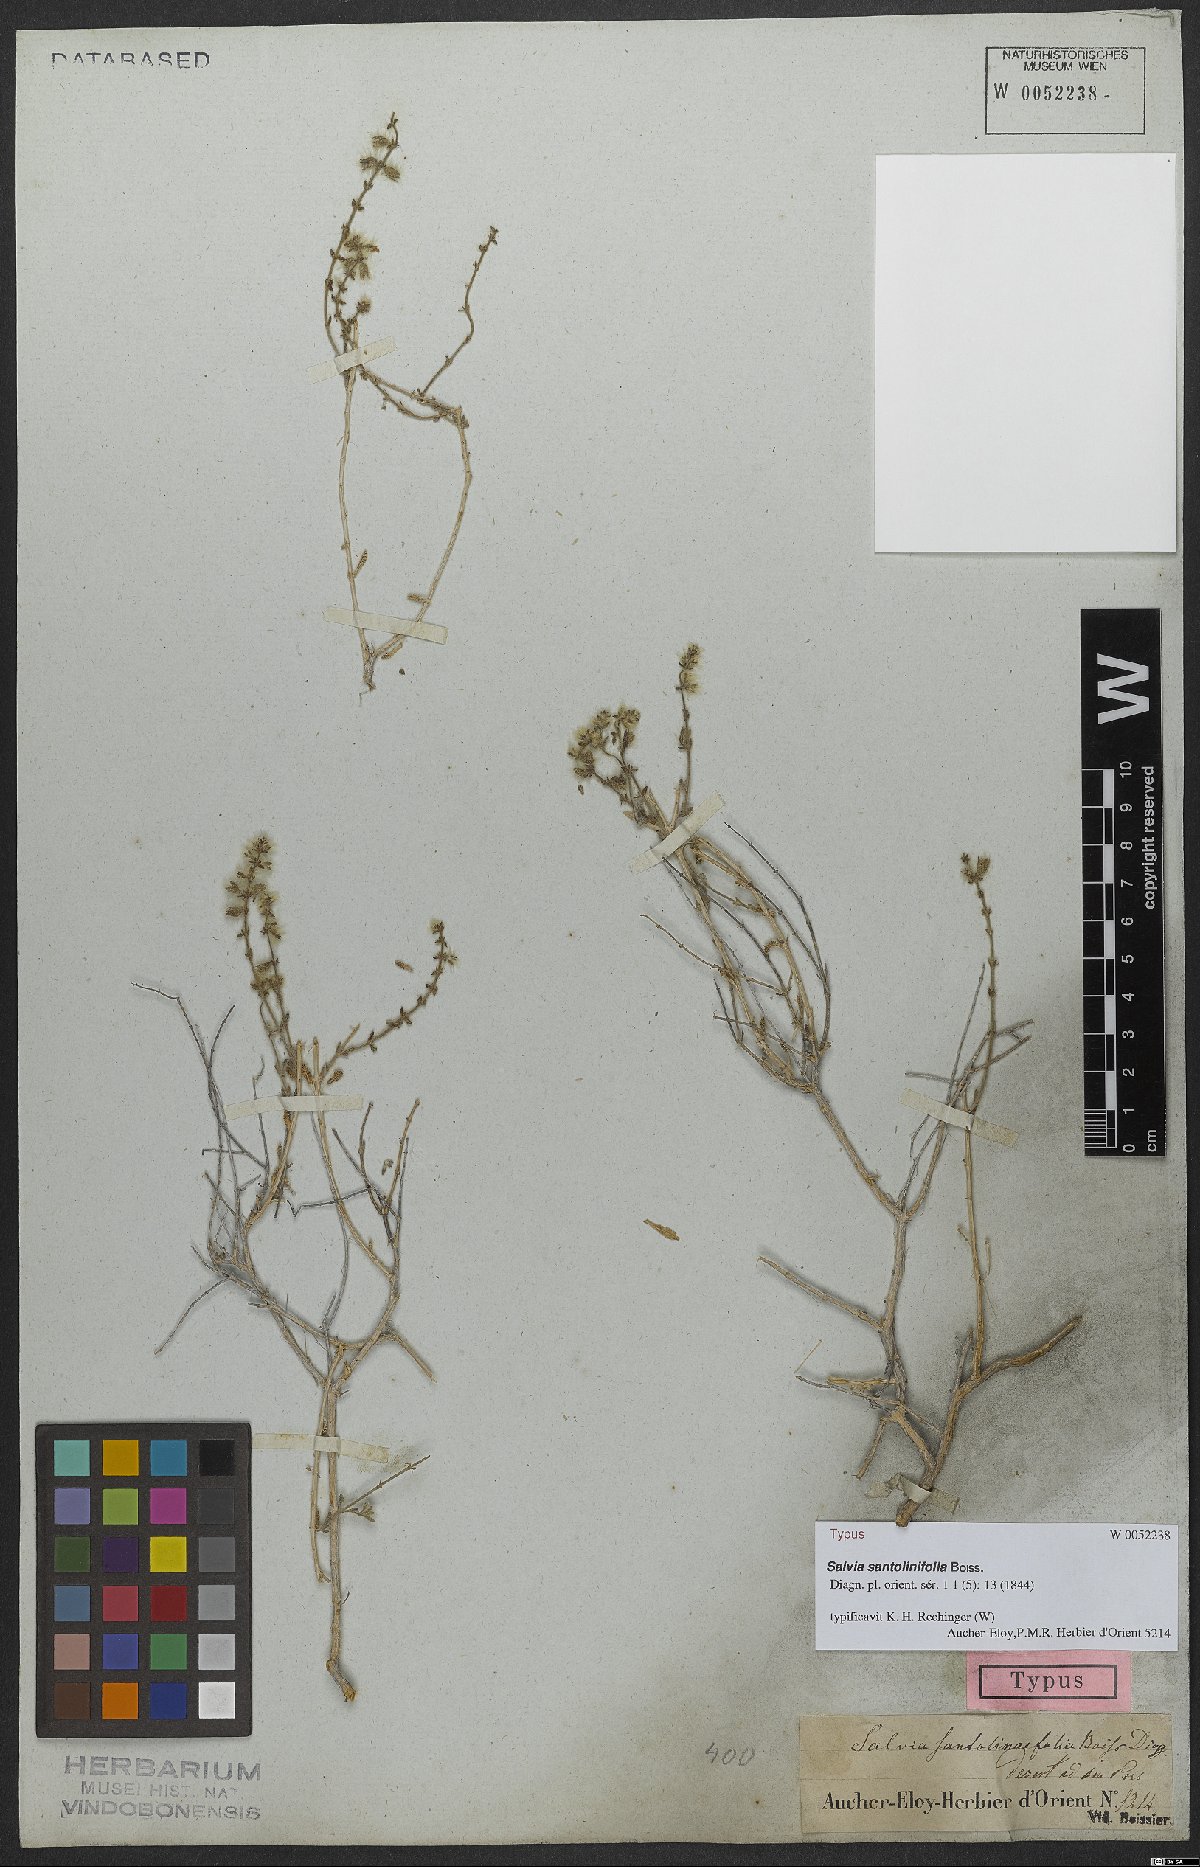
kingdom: Plantae
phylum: Tracheophyta
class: Magnoliopsida
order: Lamiales
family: Lamiaceae
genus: Salvia
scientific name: Salvia santolinifolia
